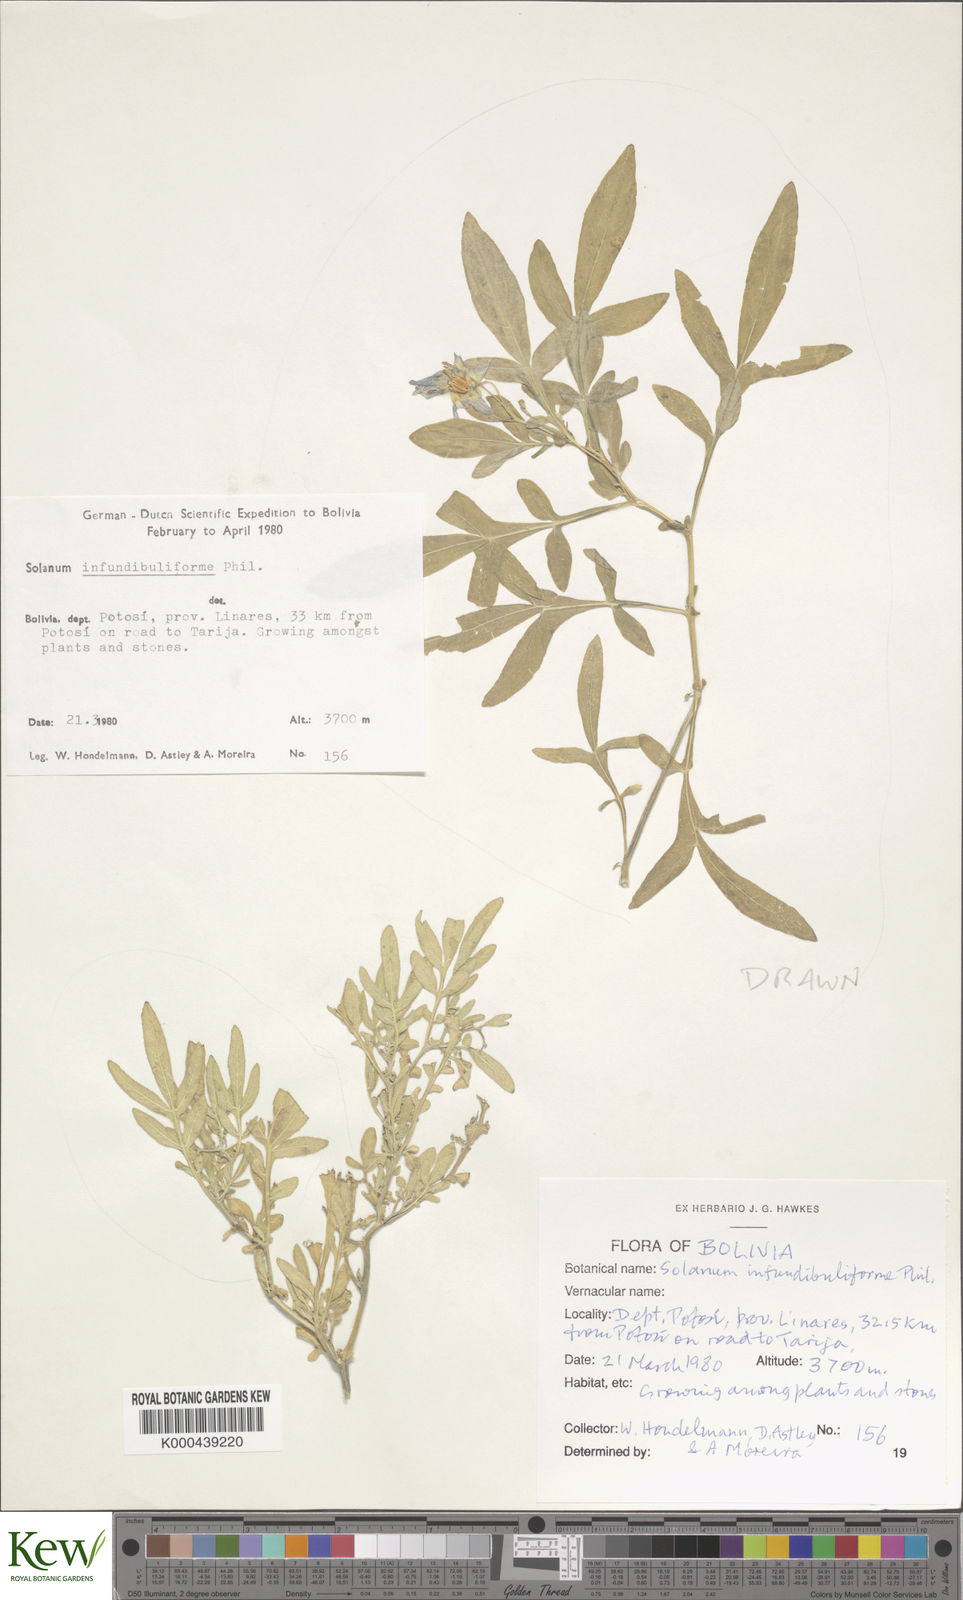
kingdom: Plantae
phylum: Tracheophyta
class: Magnoliopsida
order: Solanales
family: Solanaceae
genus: Solanum
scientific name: Solanum infundibuliforme
